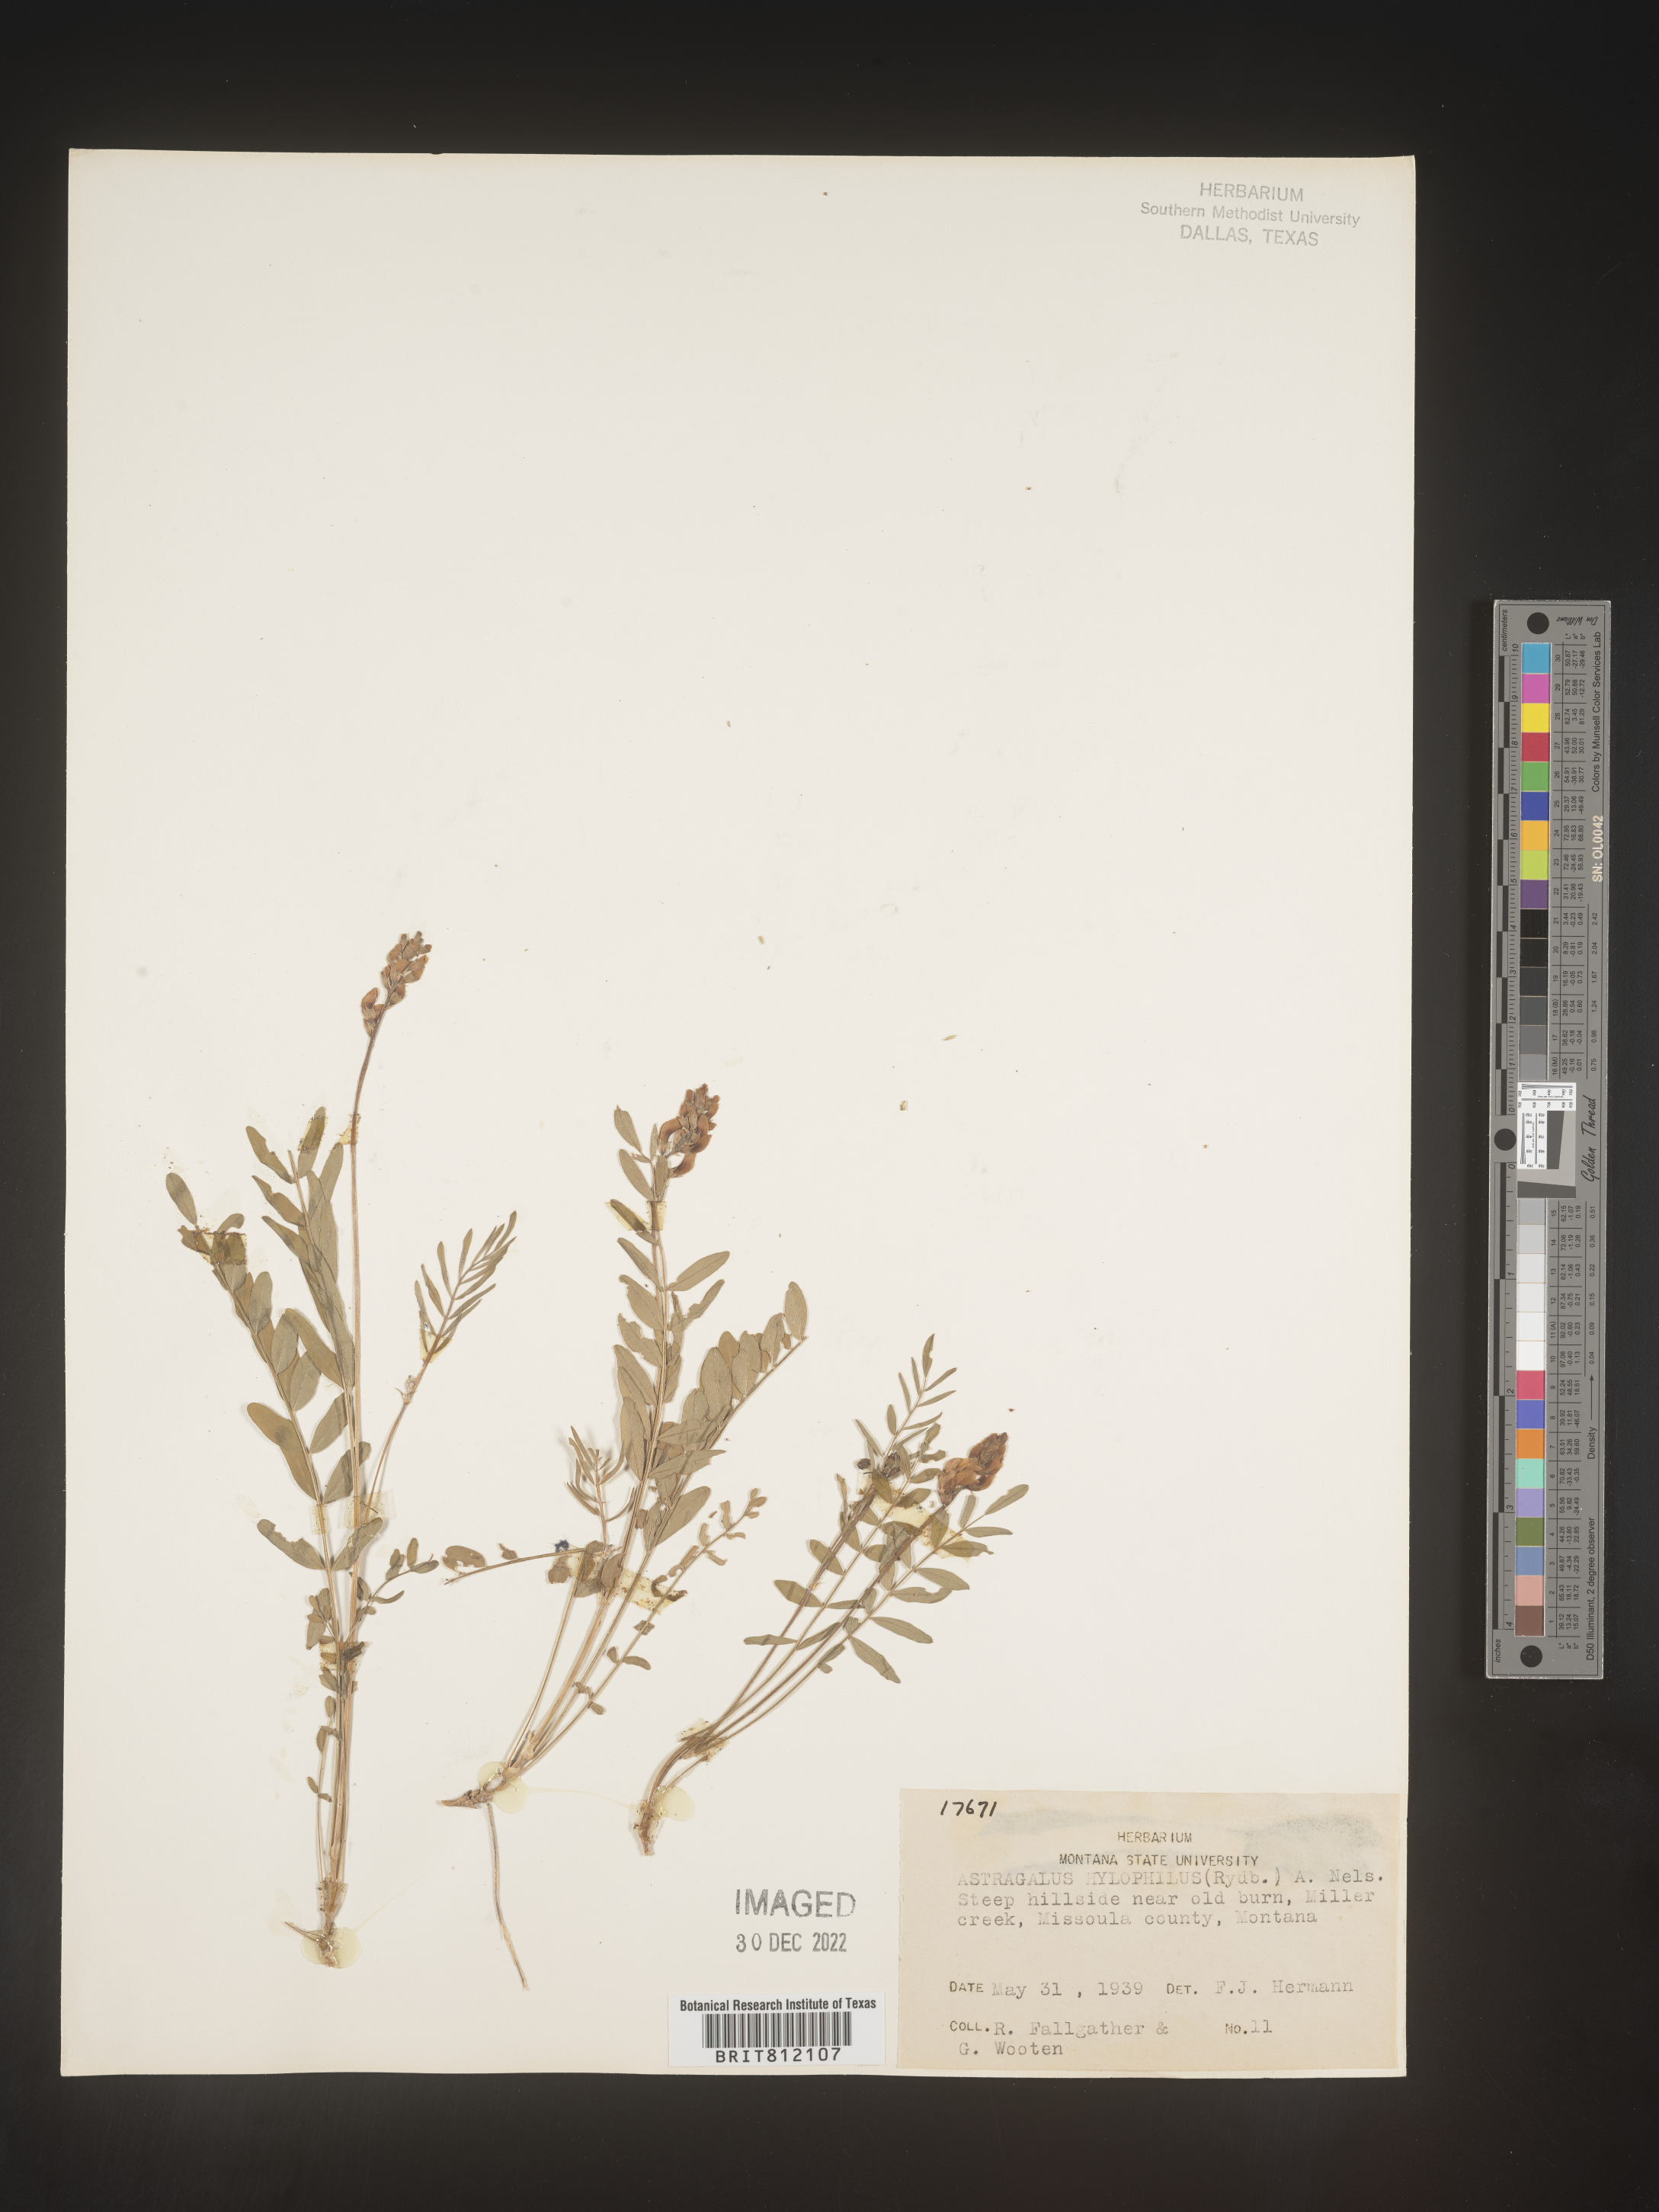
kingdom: Plantae
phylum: Tracheophyta
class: Magnoliopsida
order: Fabales
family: Fabaceae
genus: Astragalus
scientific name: Astragalus
